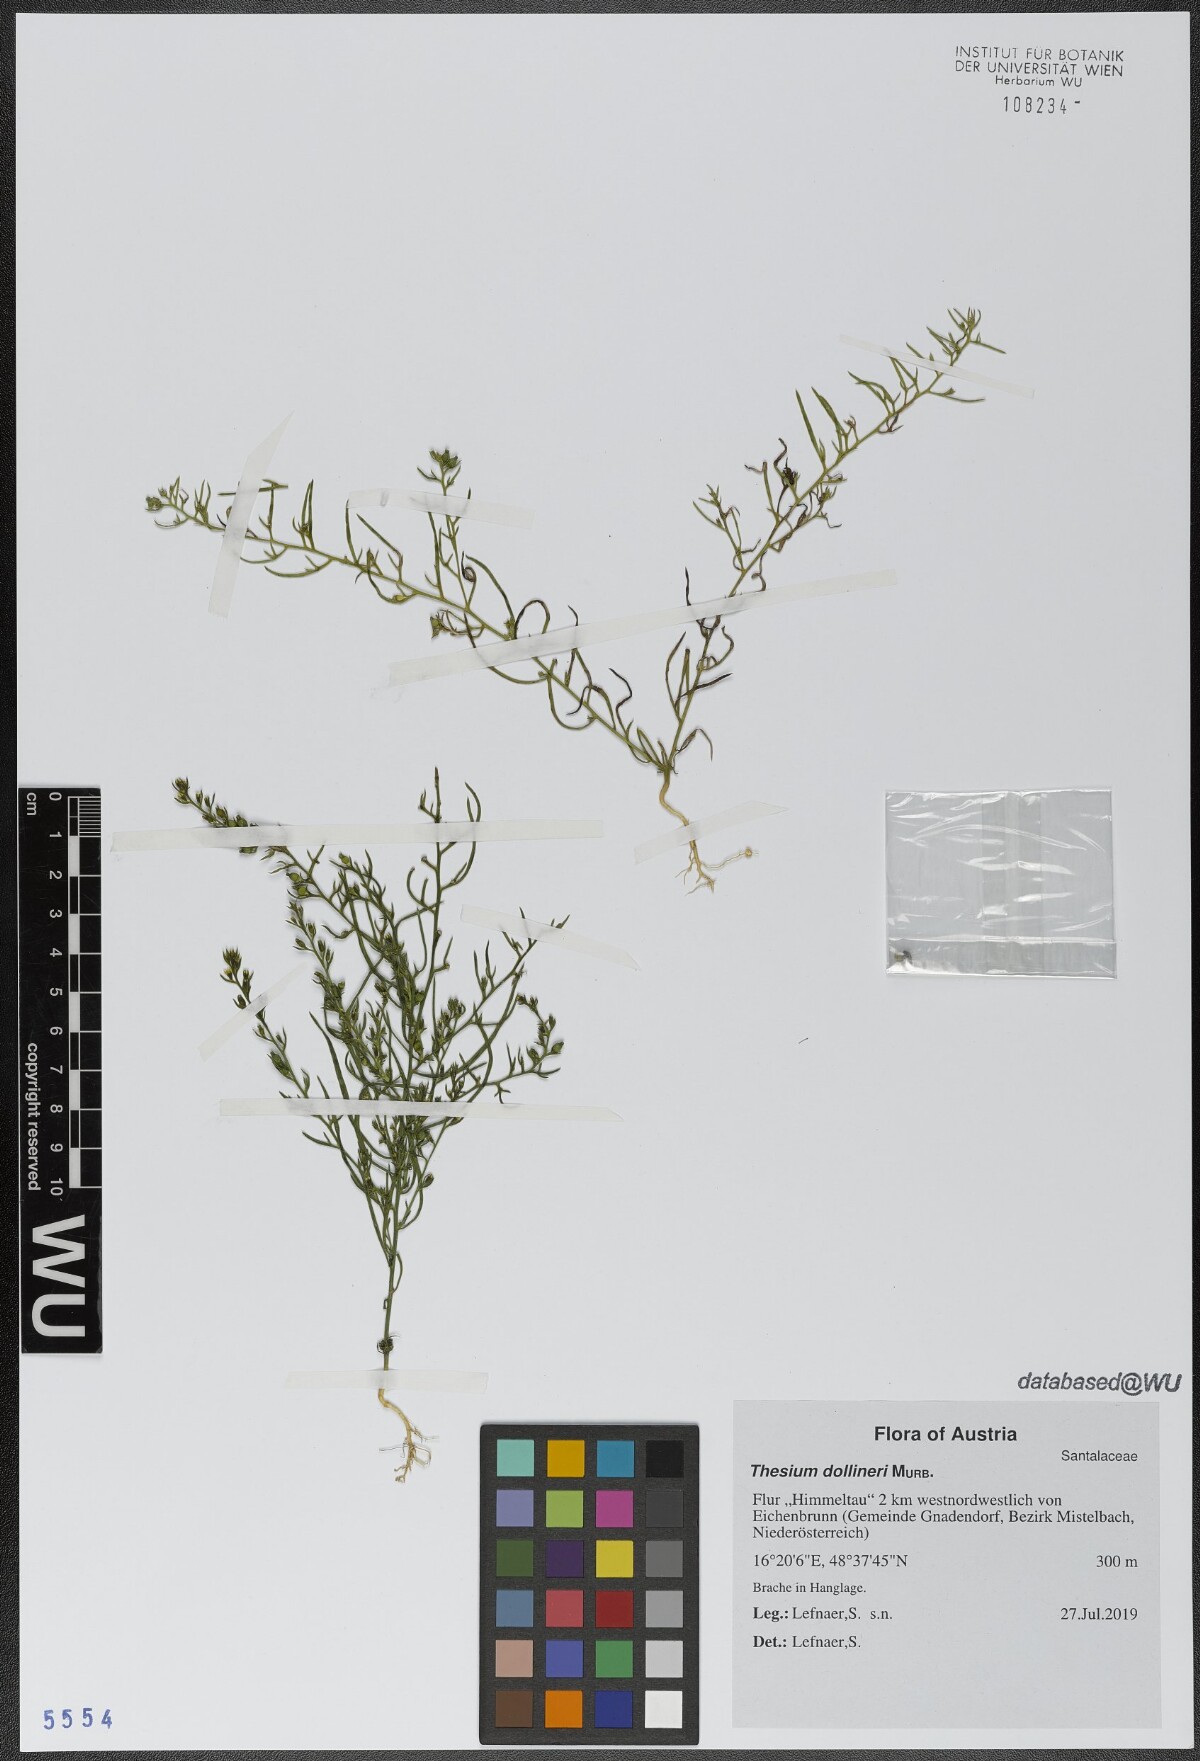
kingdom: Plantae
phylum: Tracheophyta
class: Magnoliopsida
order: Santalales
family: Thesiaceae
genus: Thesium
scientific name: Thesium dollineri
